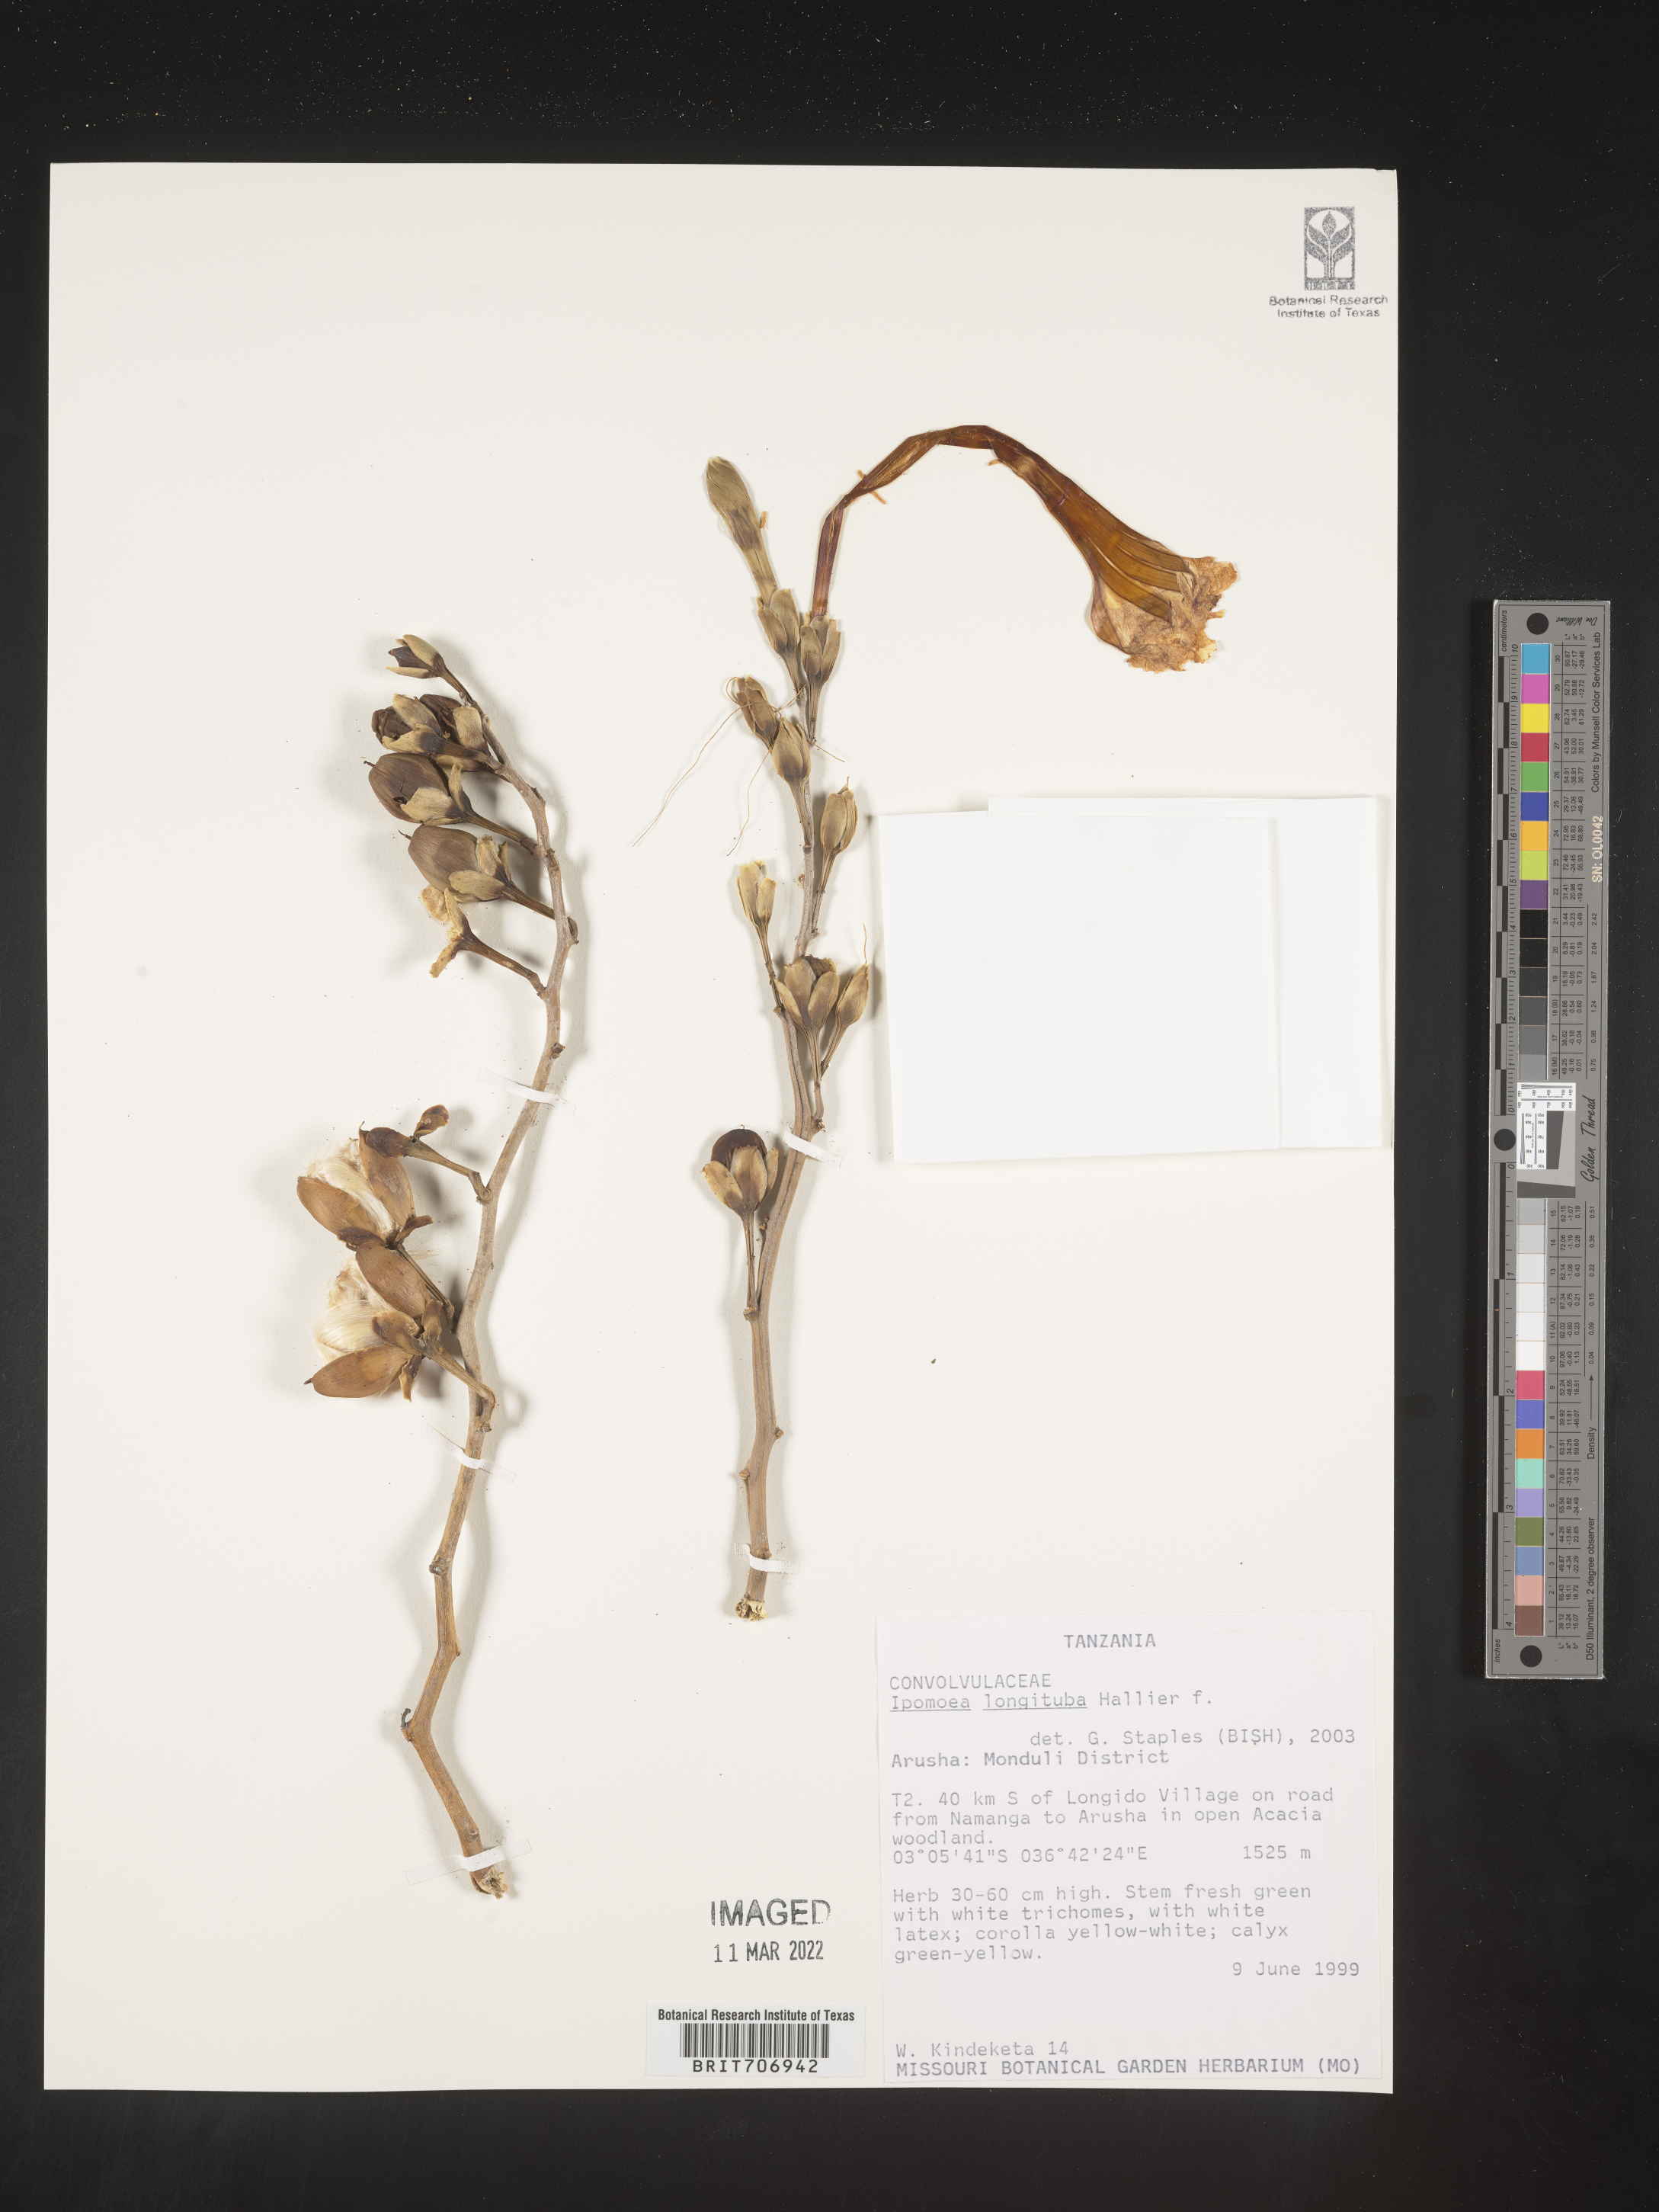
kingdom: Plantae
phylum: Tracheophyta
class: Magnoliopsida
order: Solanales
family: Convolvulaceae
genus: Ipomoea
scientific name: Ipomoea
